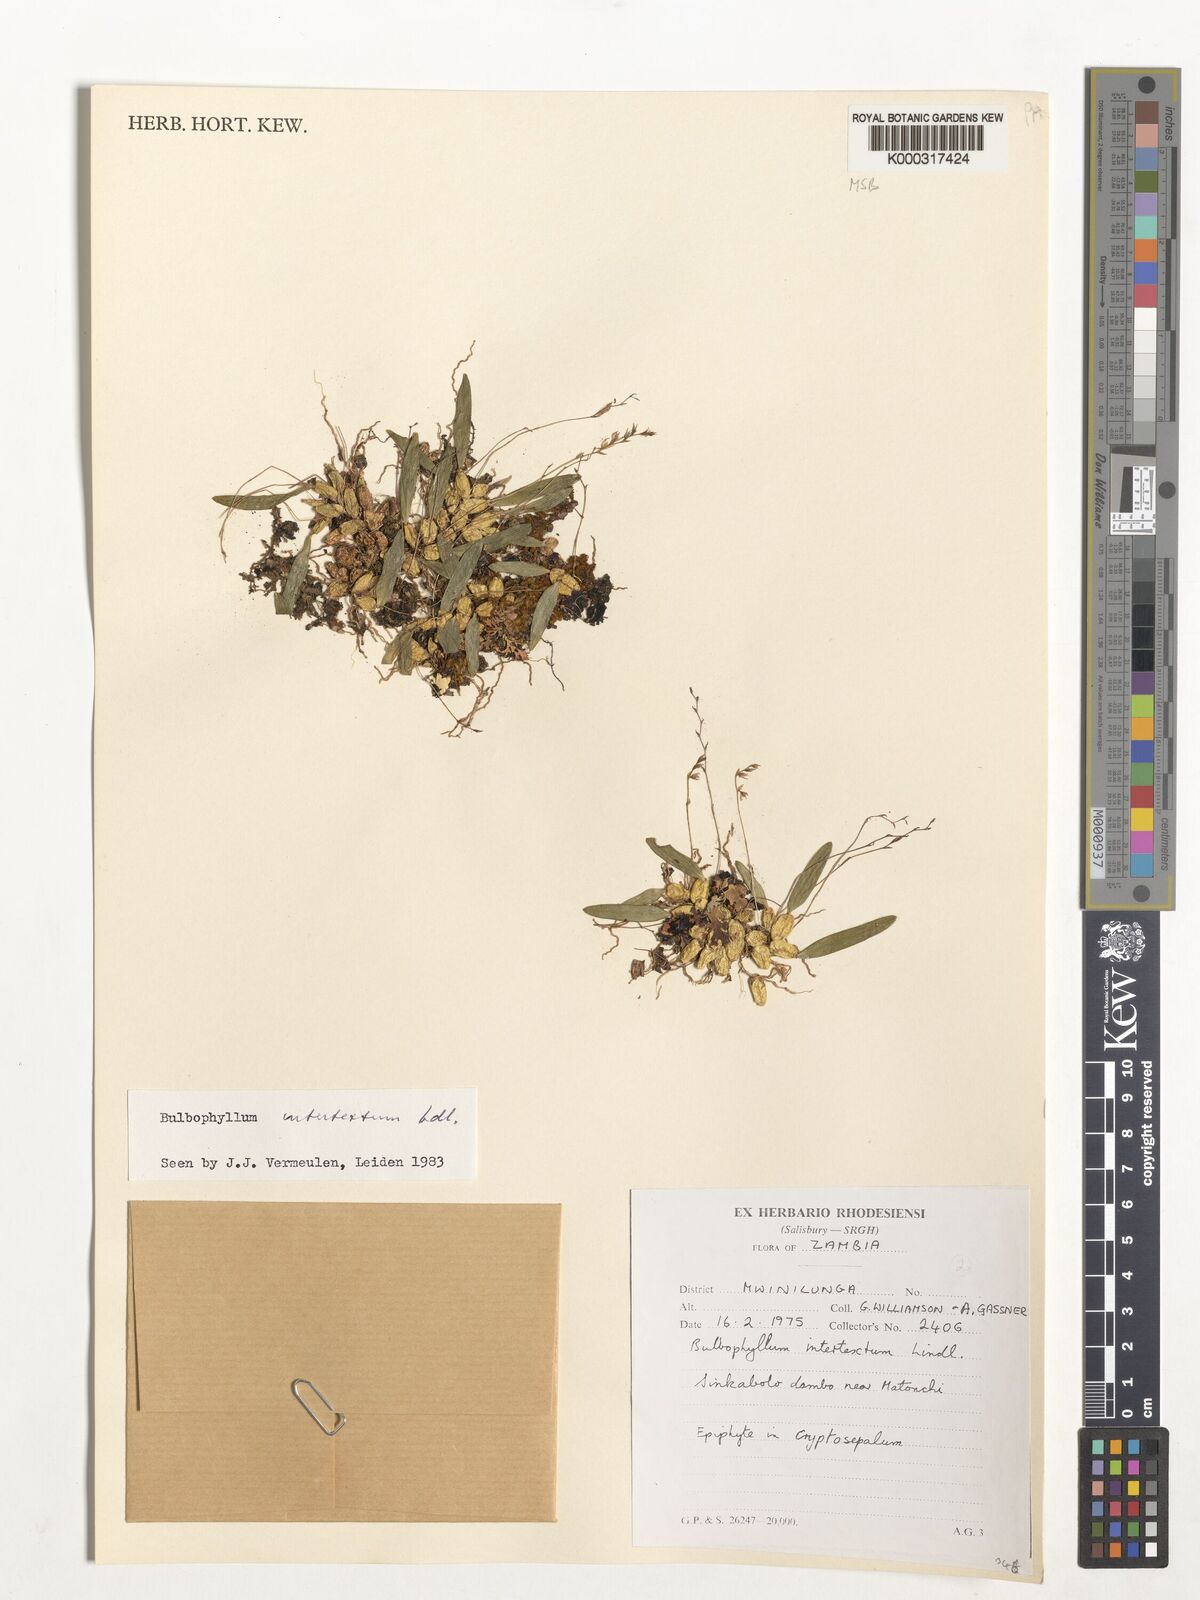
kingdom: Plantae
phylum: Tracheophyta
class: Liliopsida
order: Asparagales
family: Orchidaceae
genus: Bulbophyllum
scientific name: Bulbophyllum intertextum
